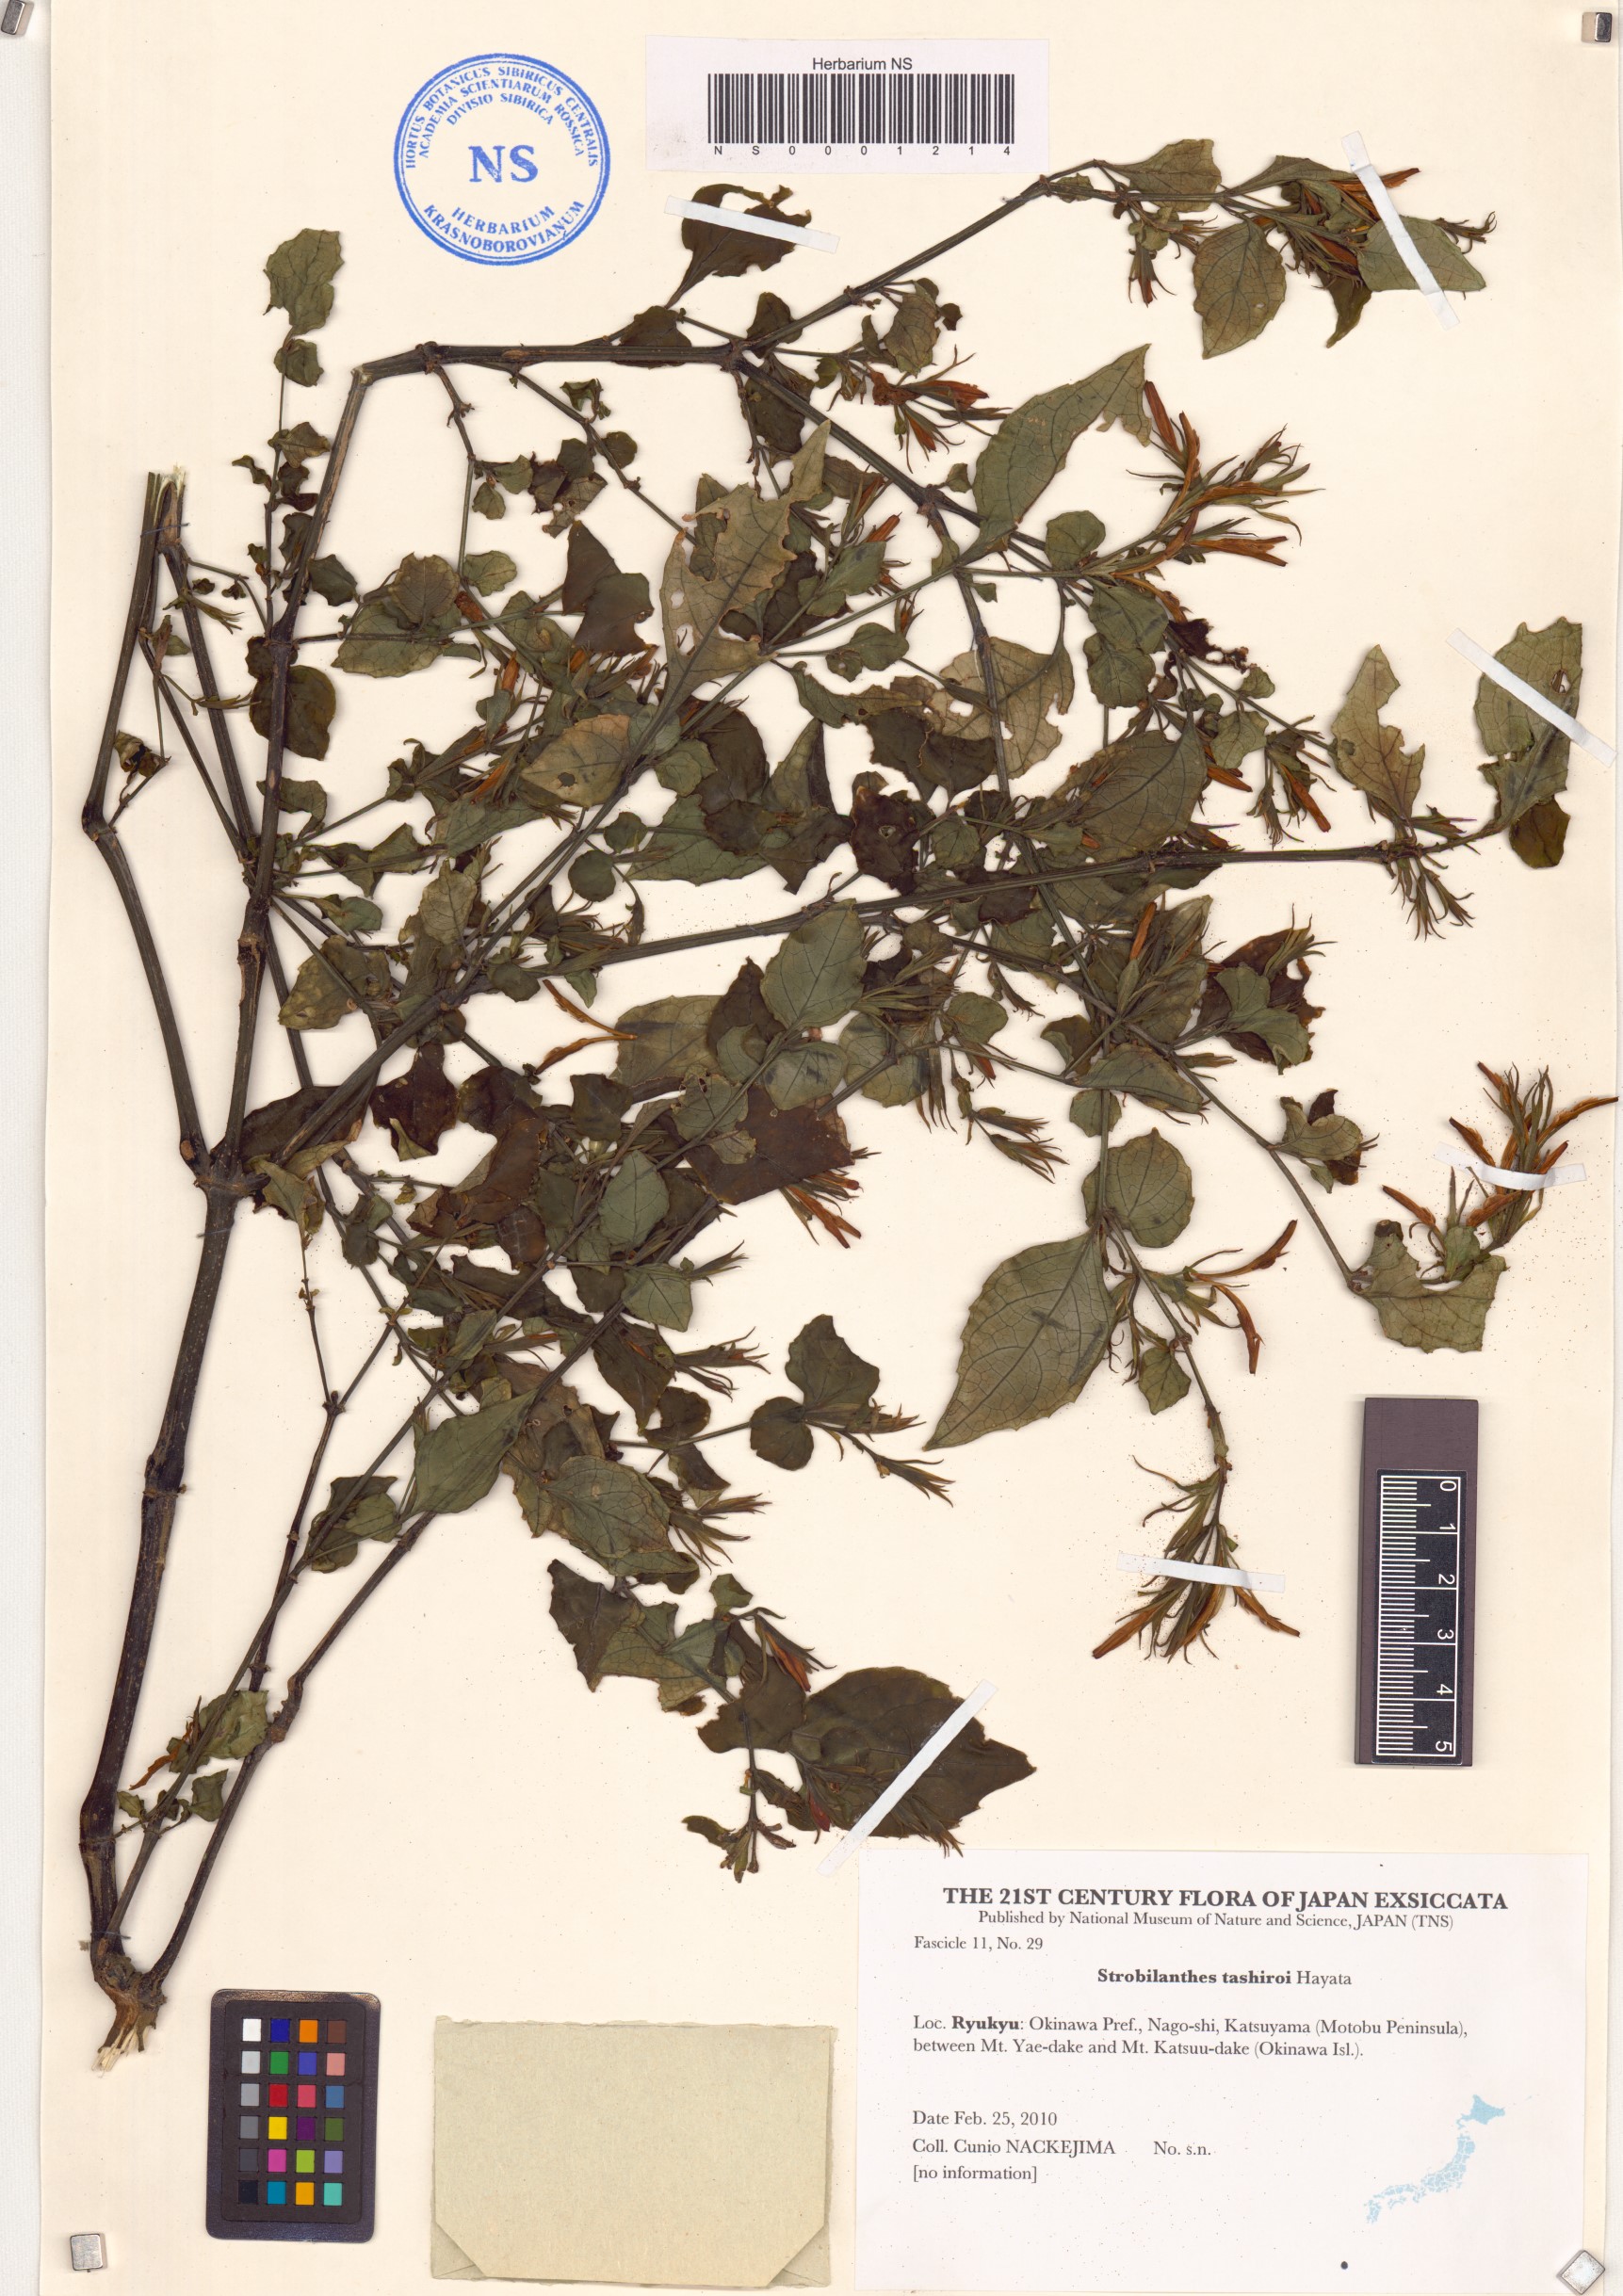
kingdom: Plantae
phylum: Tracheophyta
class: Magnoliopsida
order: Lamiales
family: Acanthaceae
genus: Strobilanthes
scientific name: Strobilanthes flexicaulis
